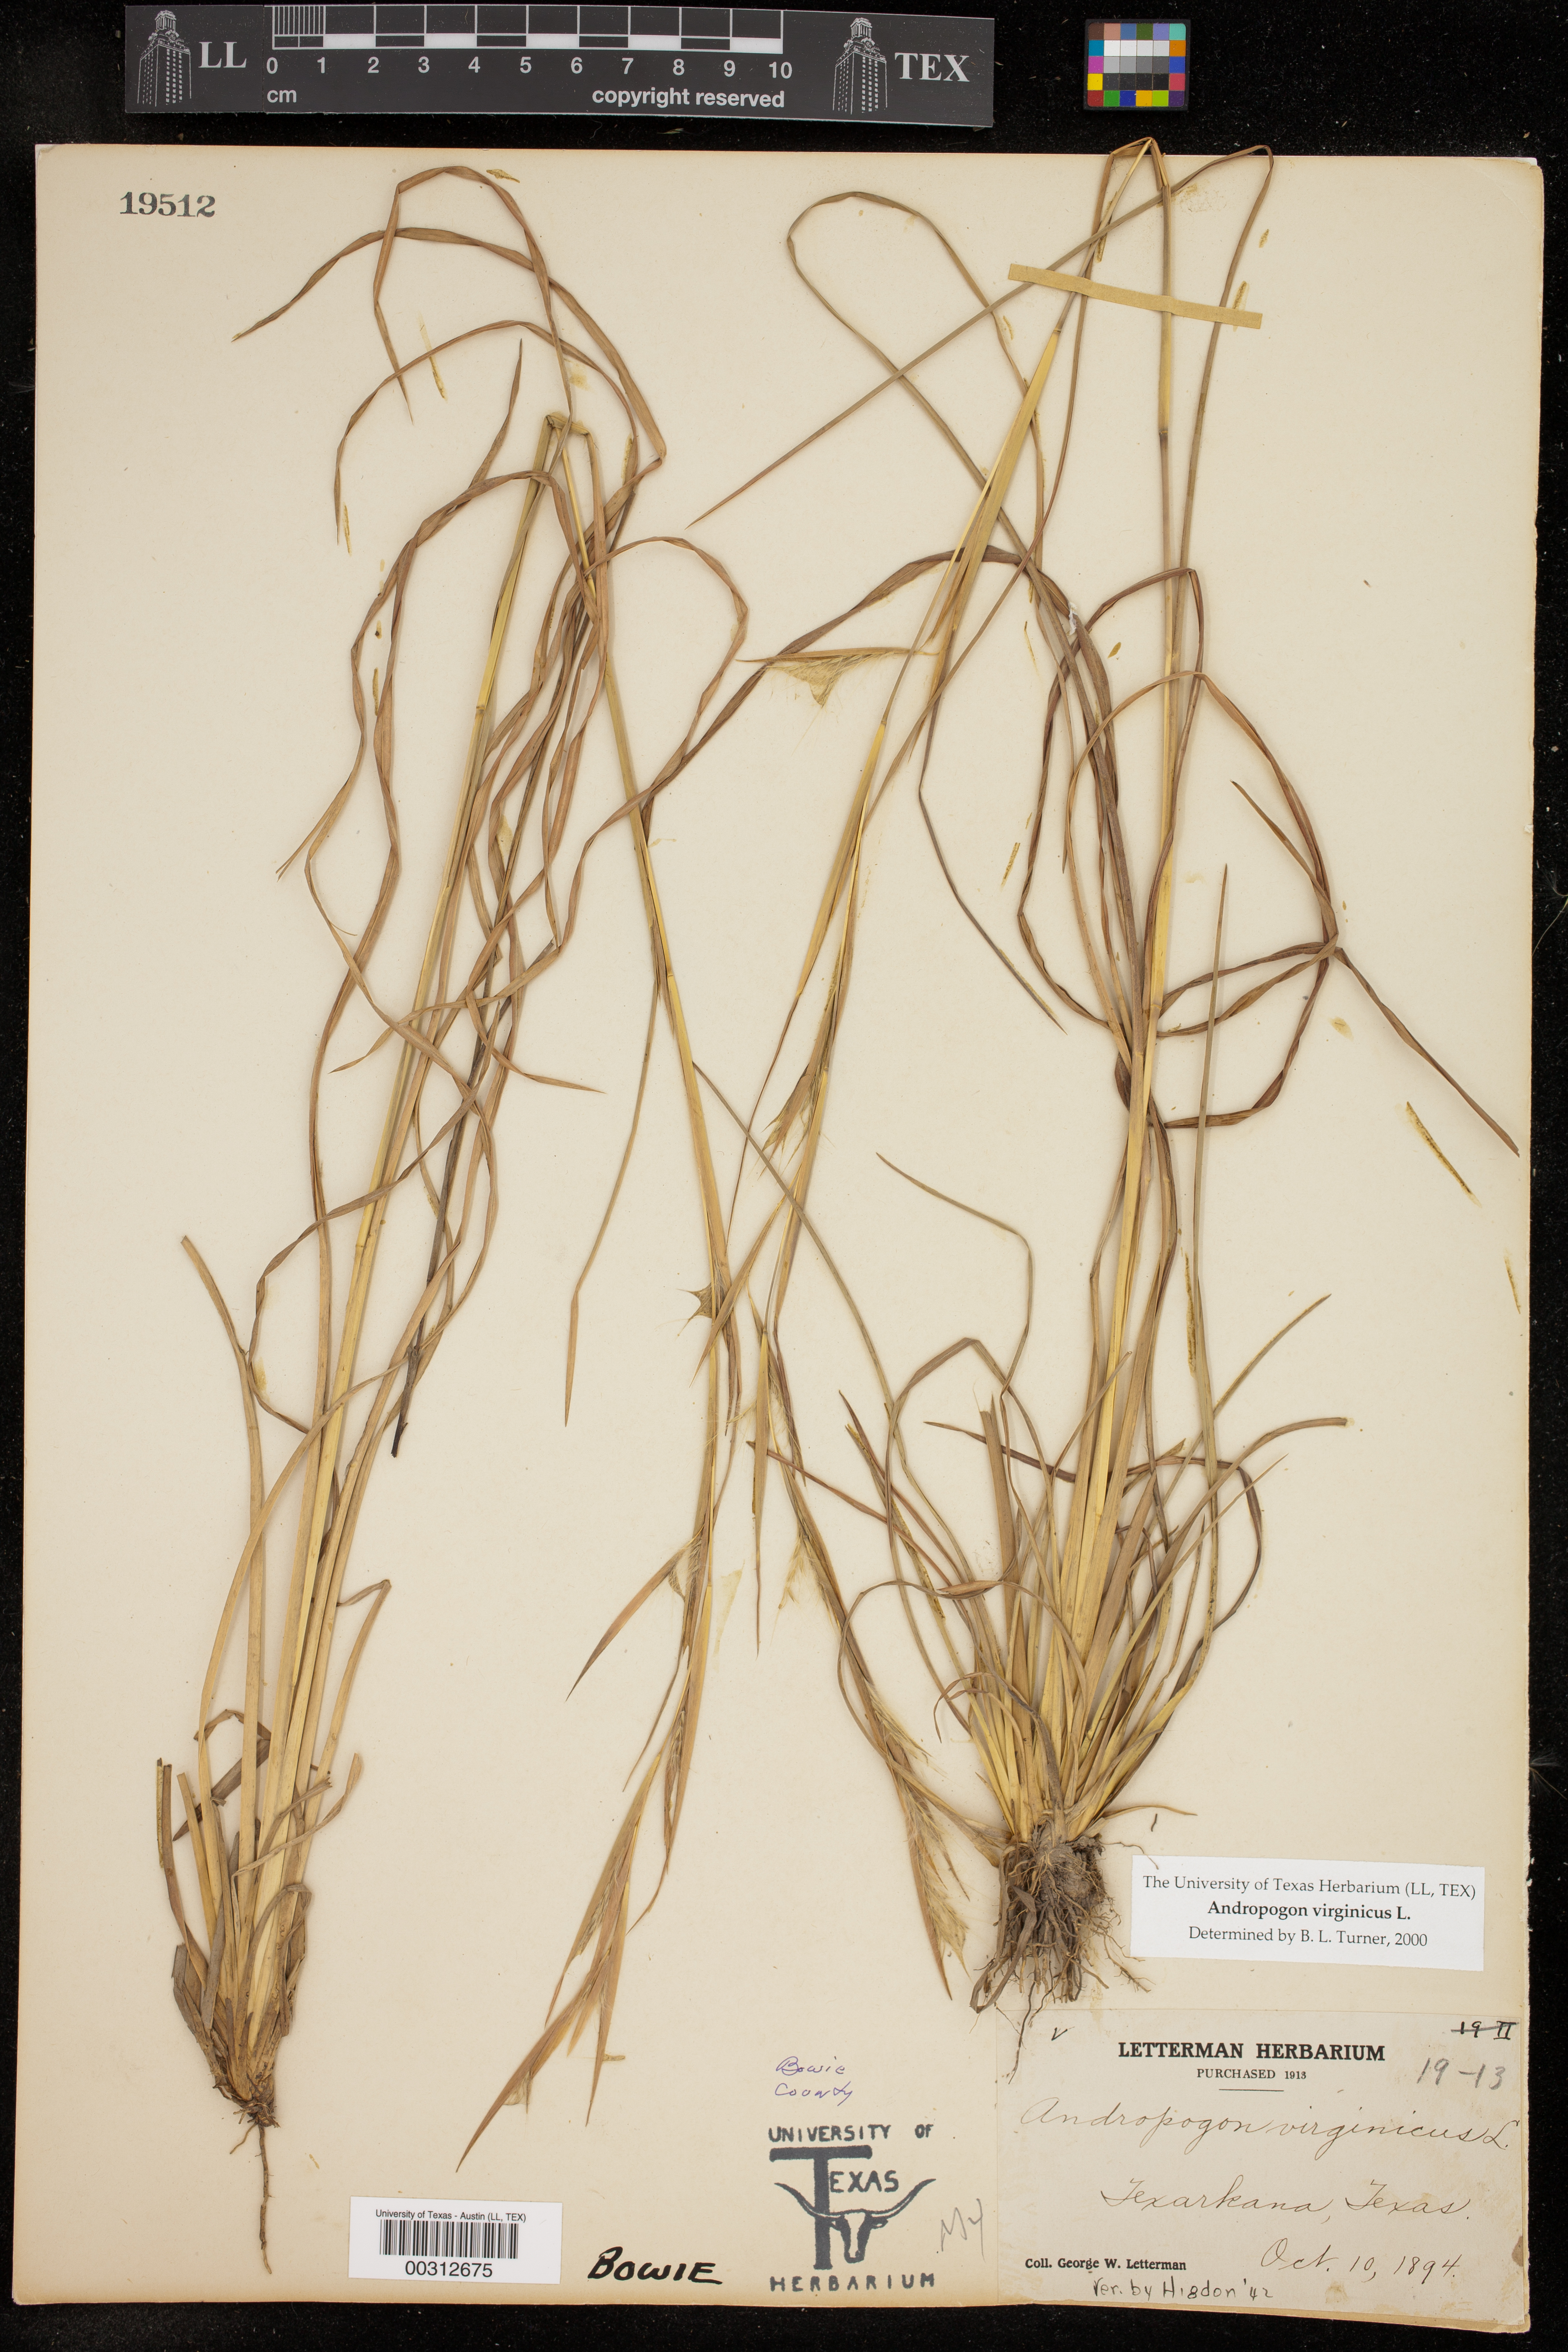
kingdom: Plantae
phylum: Tracheophyta
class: Liliopsida
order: Poales
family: Poaceae
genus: Andropogon
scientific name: Andropogon virginicus
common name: Broomsedge bluestem
